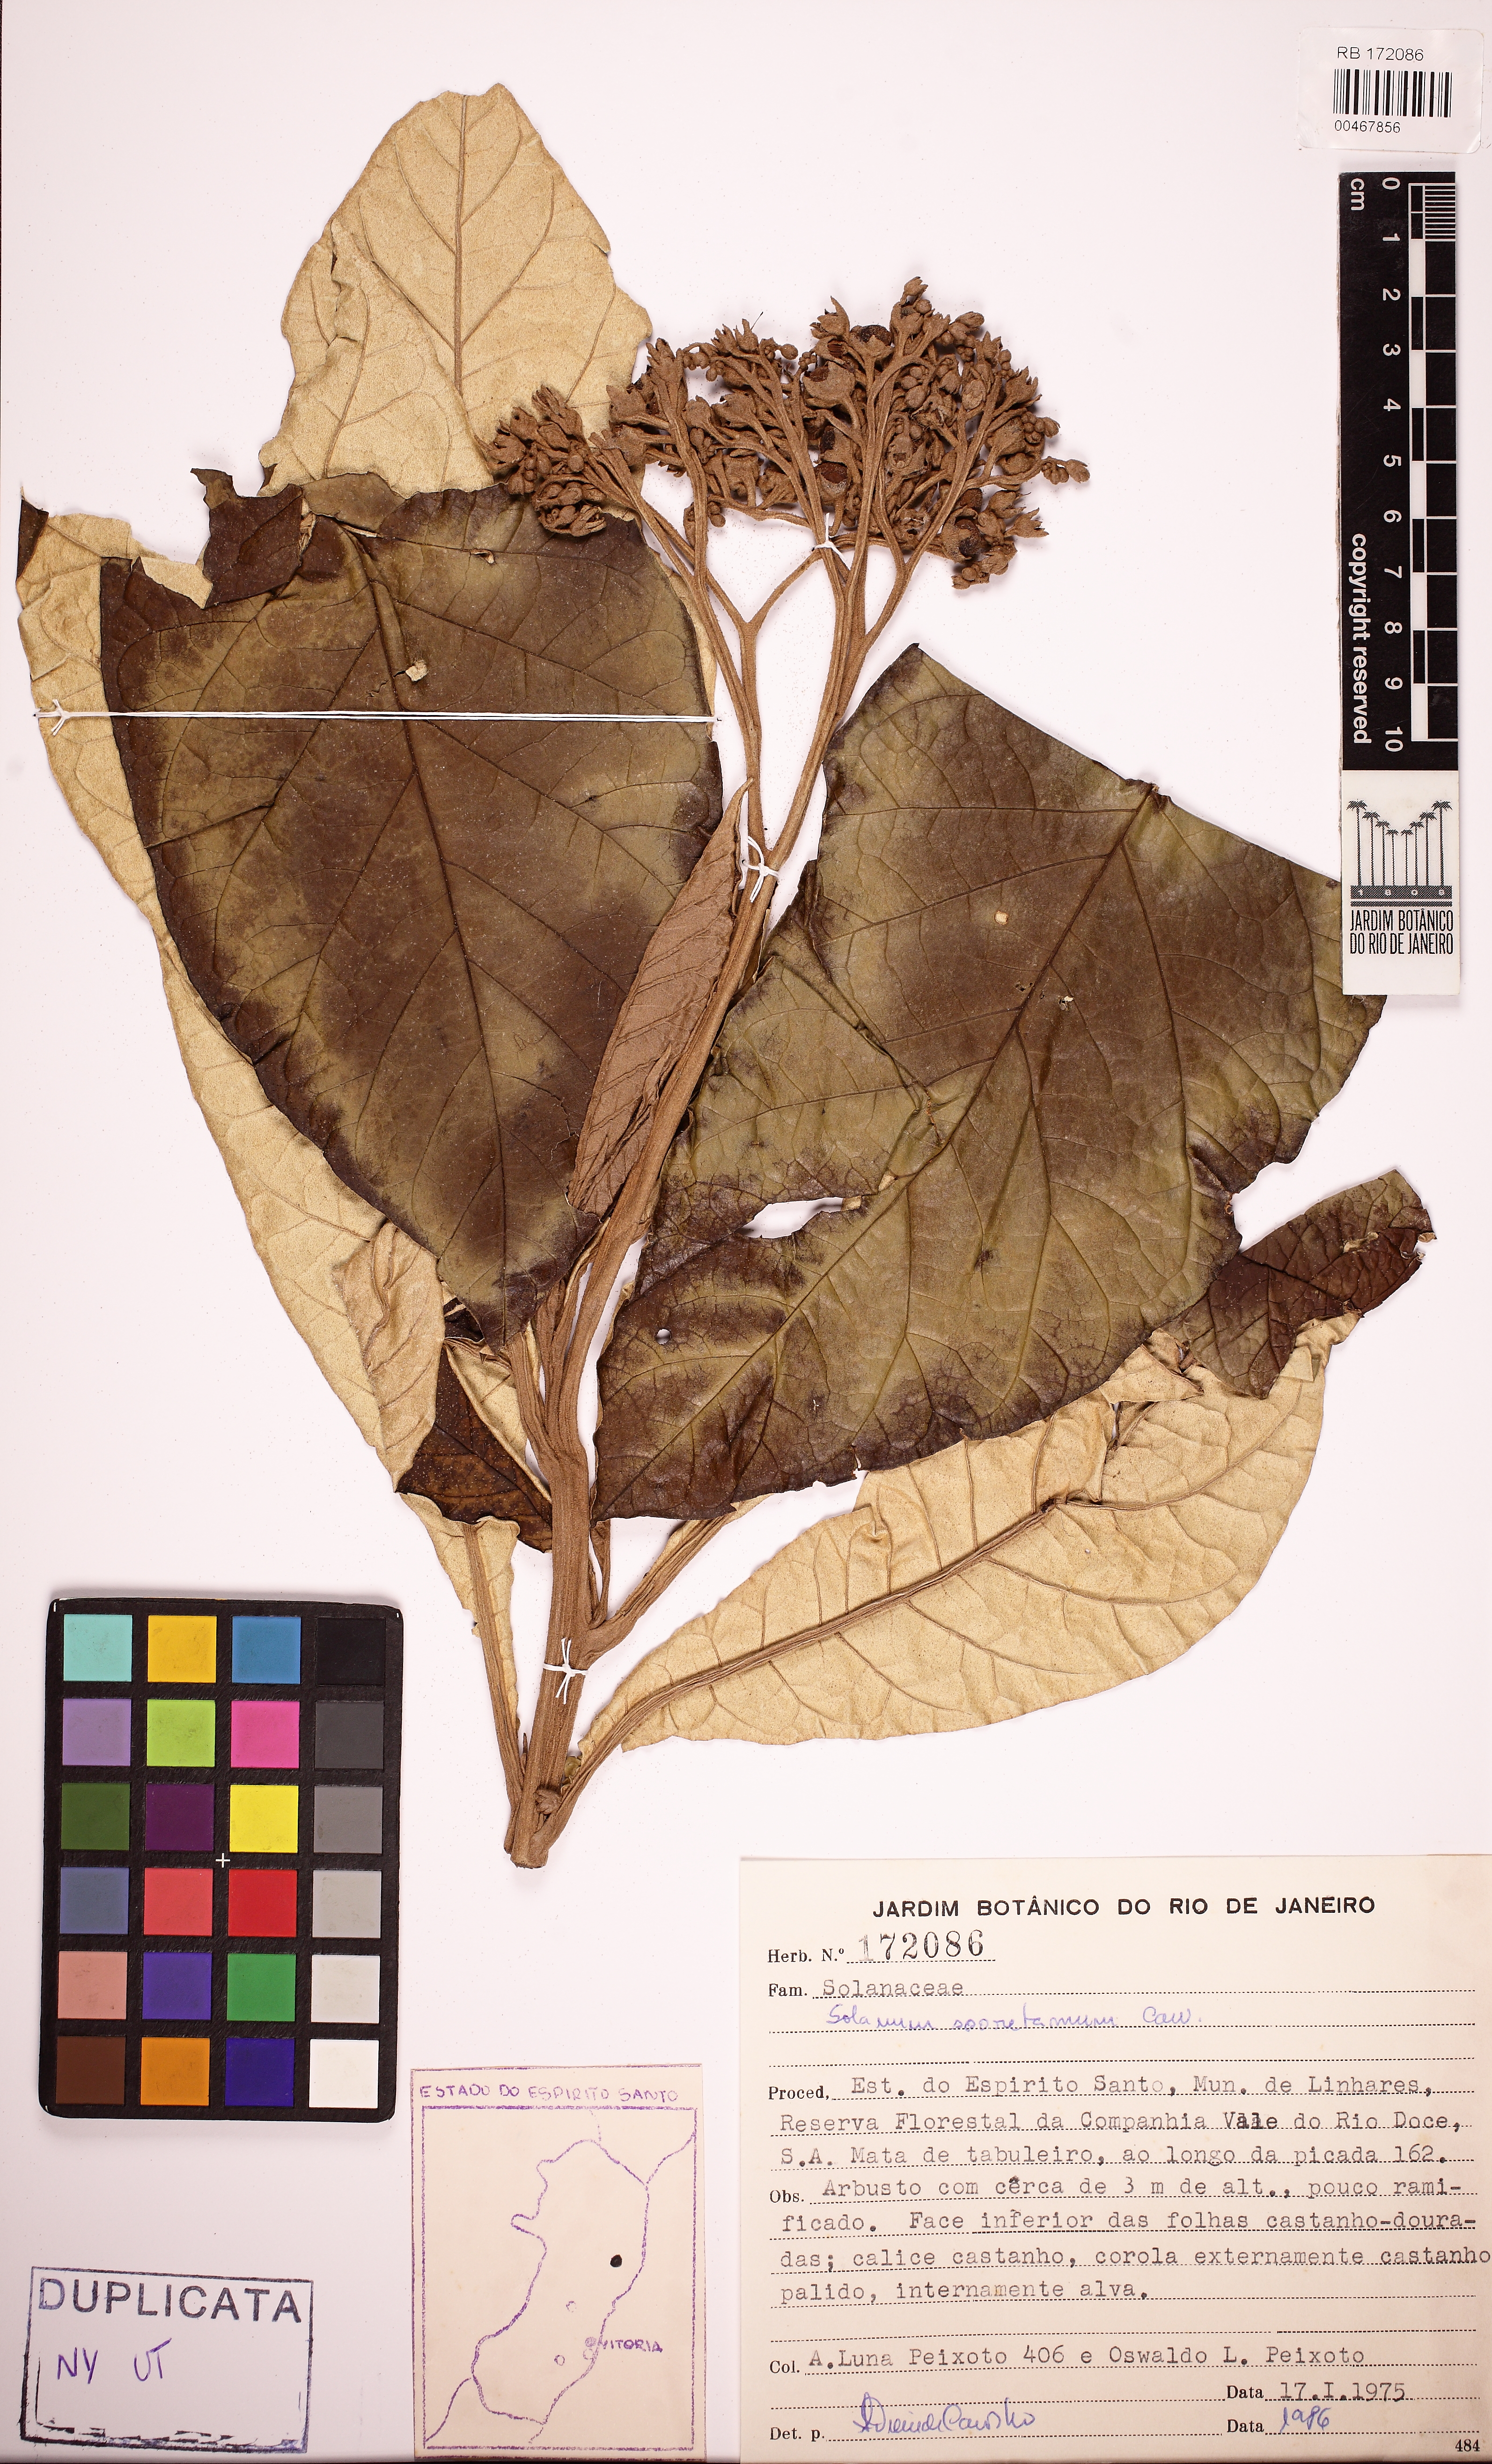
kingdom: Plantae
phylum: Tracheophyta
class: Magnoliopsida
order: Solanales
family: Solanaceae
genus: Solanum
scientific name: Solanum sooretamum
